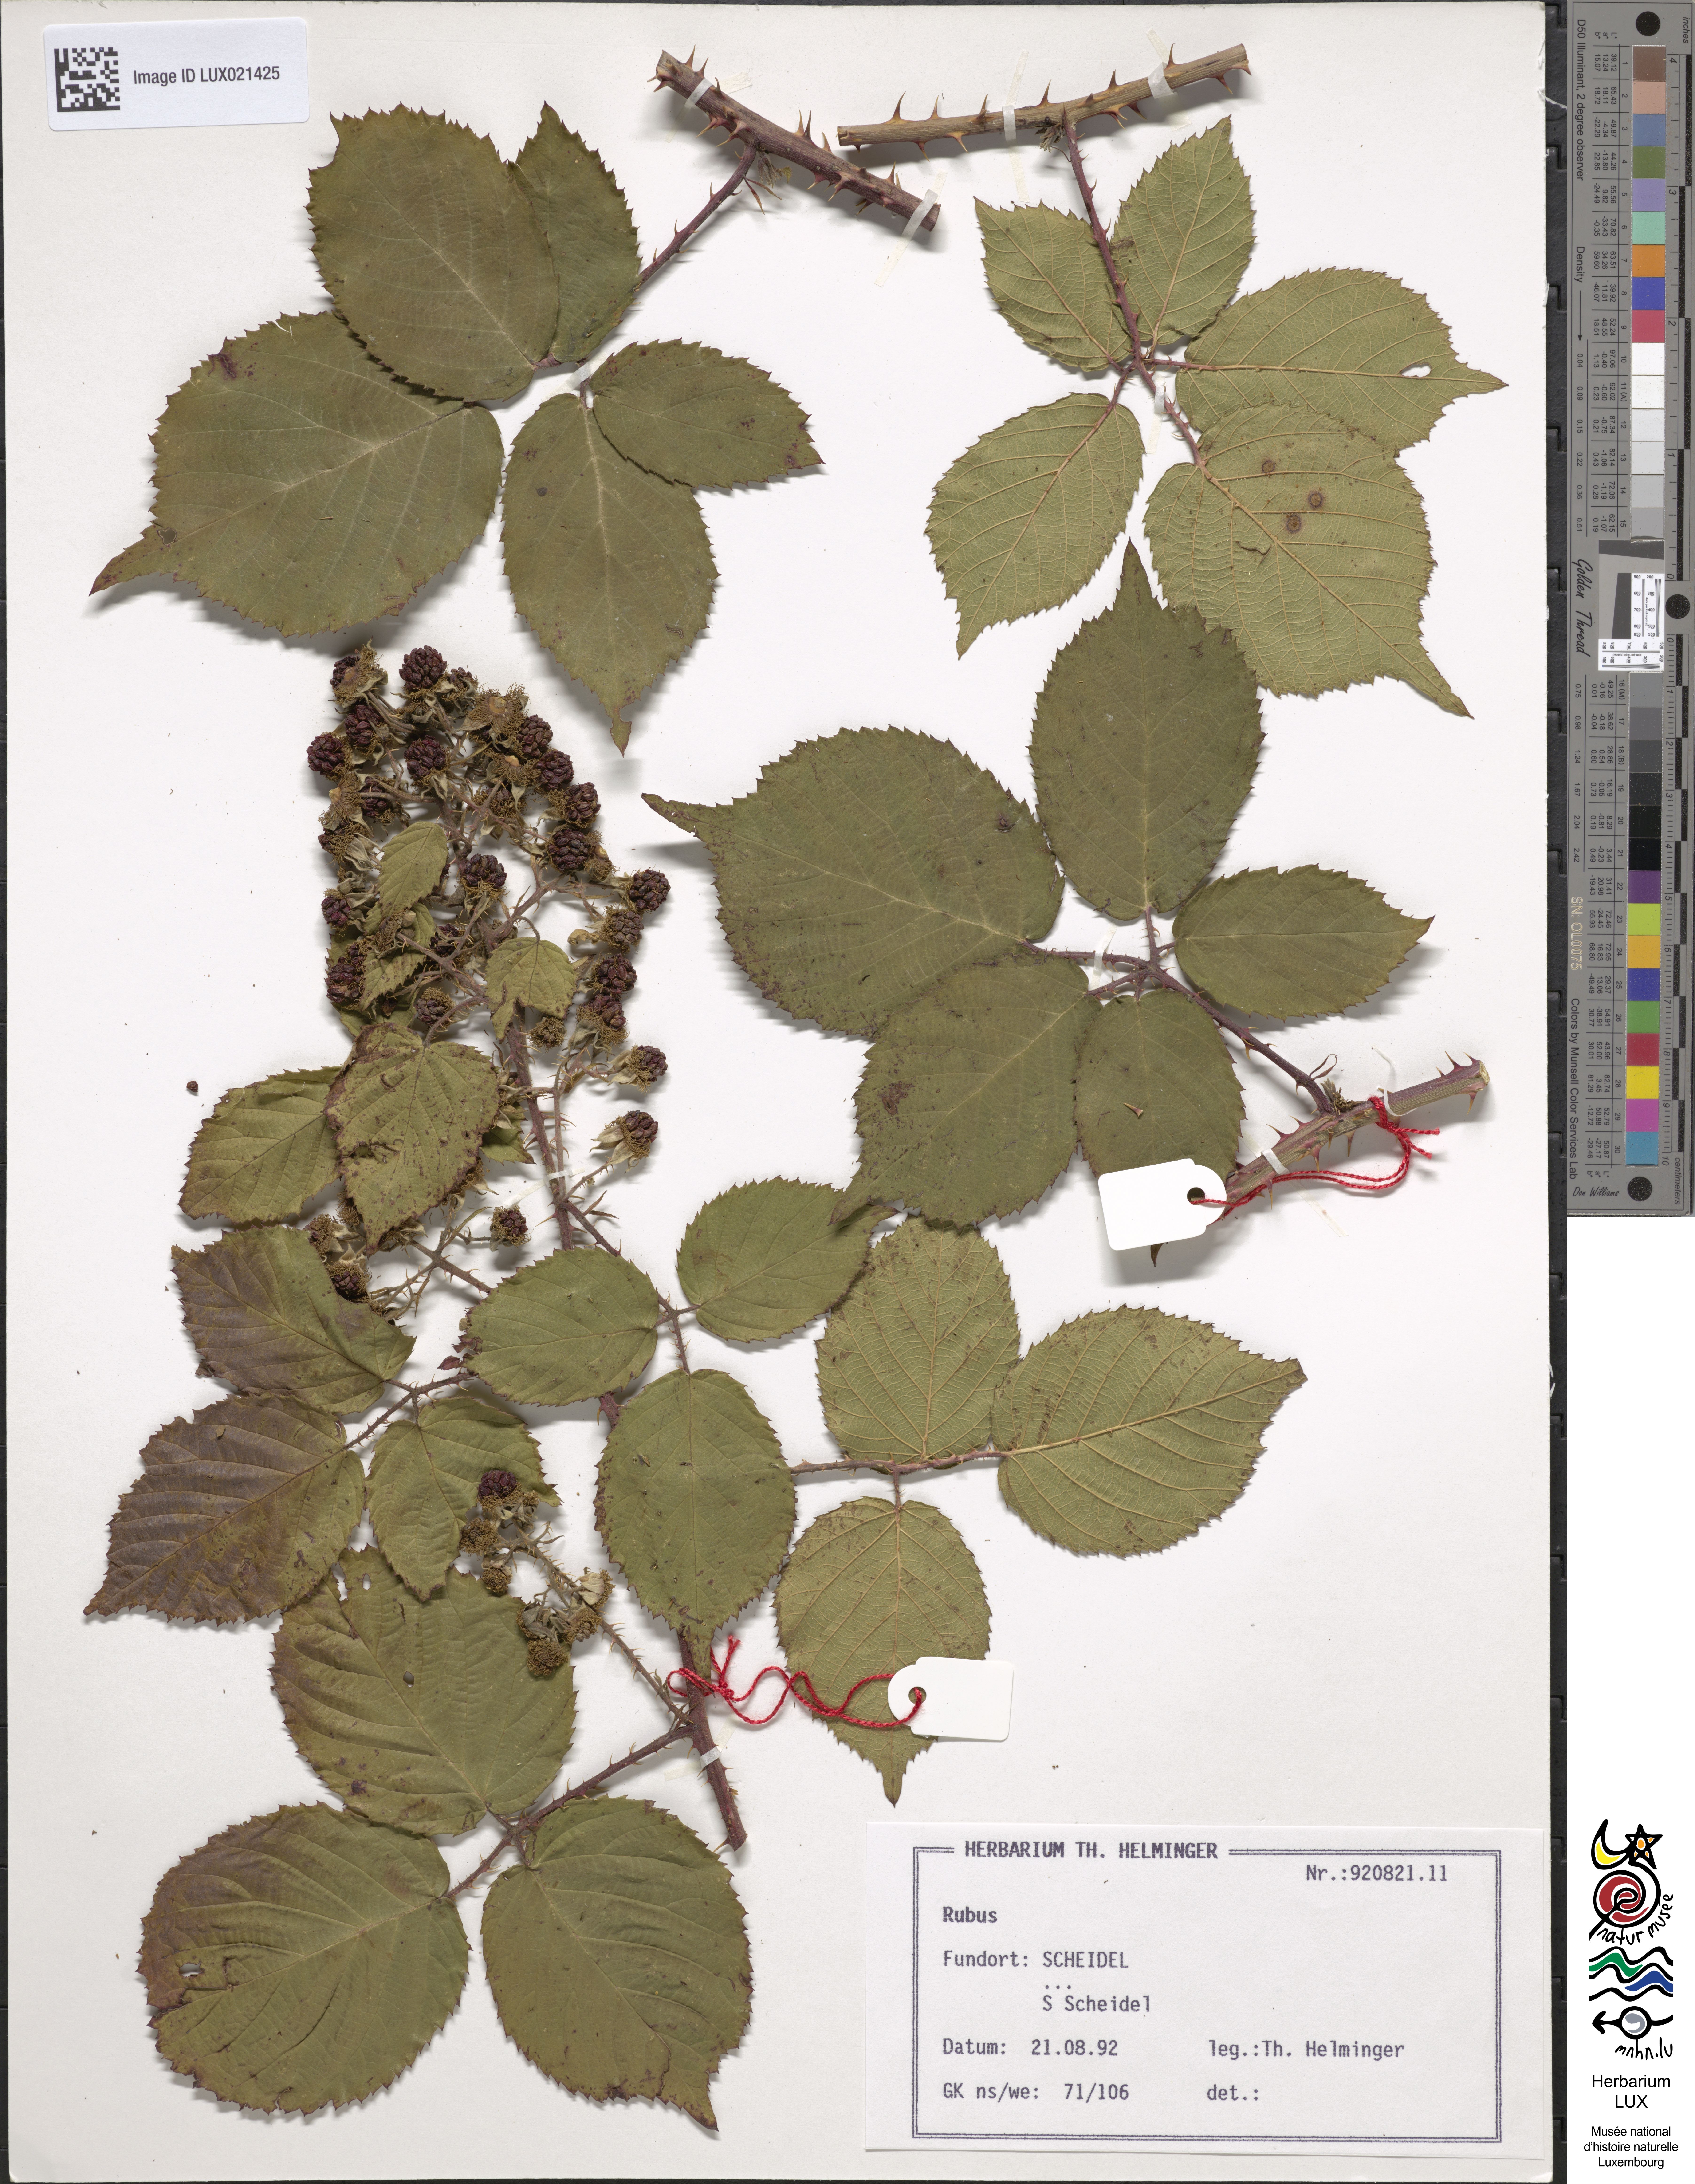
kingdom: Plantae
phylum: Tracheophyta
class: Magnoliopsida
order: Rosales
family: Rosaceae
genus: Rubus
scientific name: Rubus
